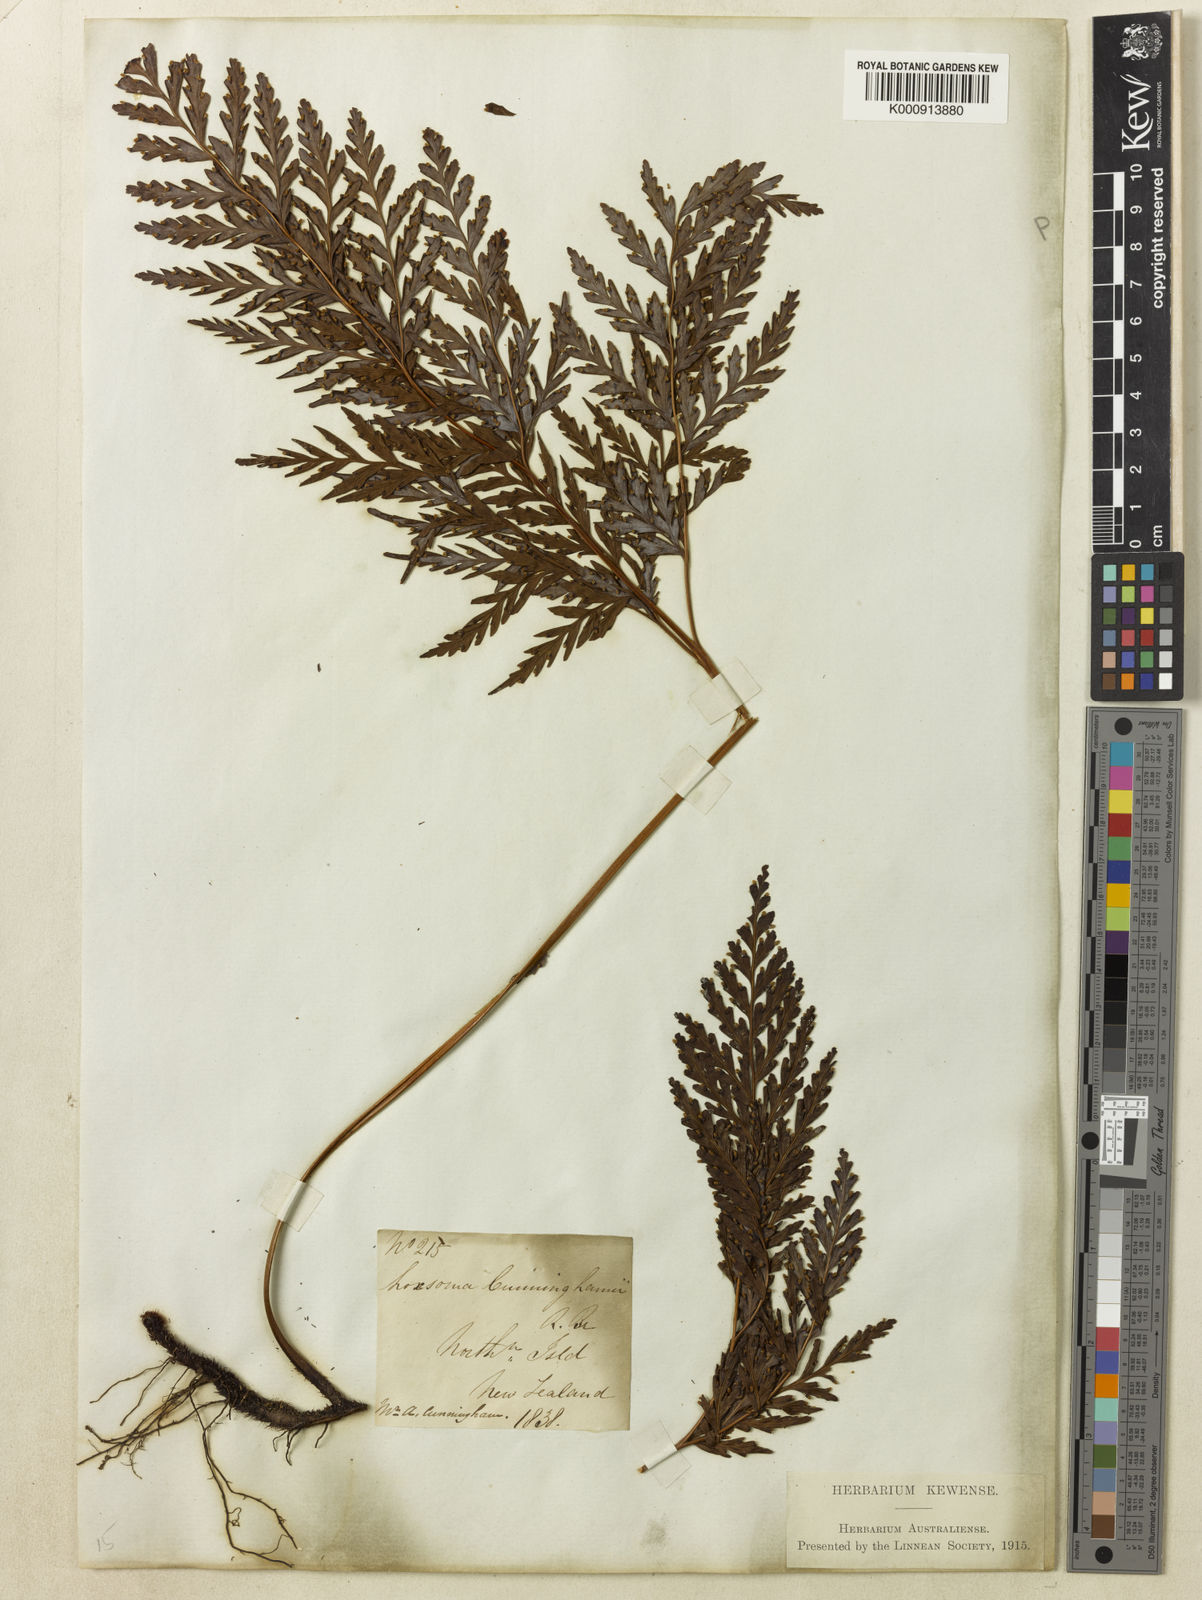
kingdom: Plantae
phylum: Tracheophyta
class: Polypodiopsida
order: Cyatheales
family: Cyatheaceae
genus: Loxsoma
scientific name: Loxsoma cunninghamii
